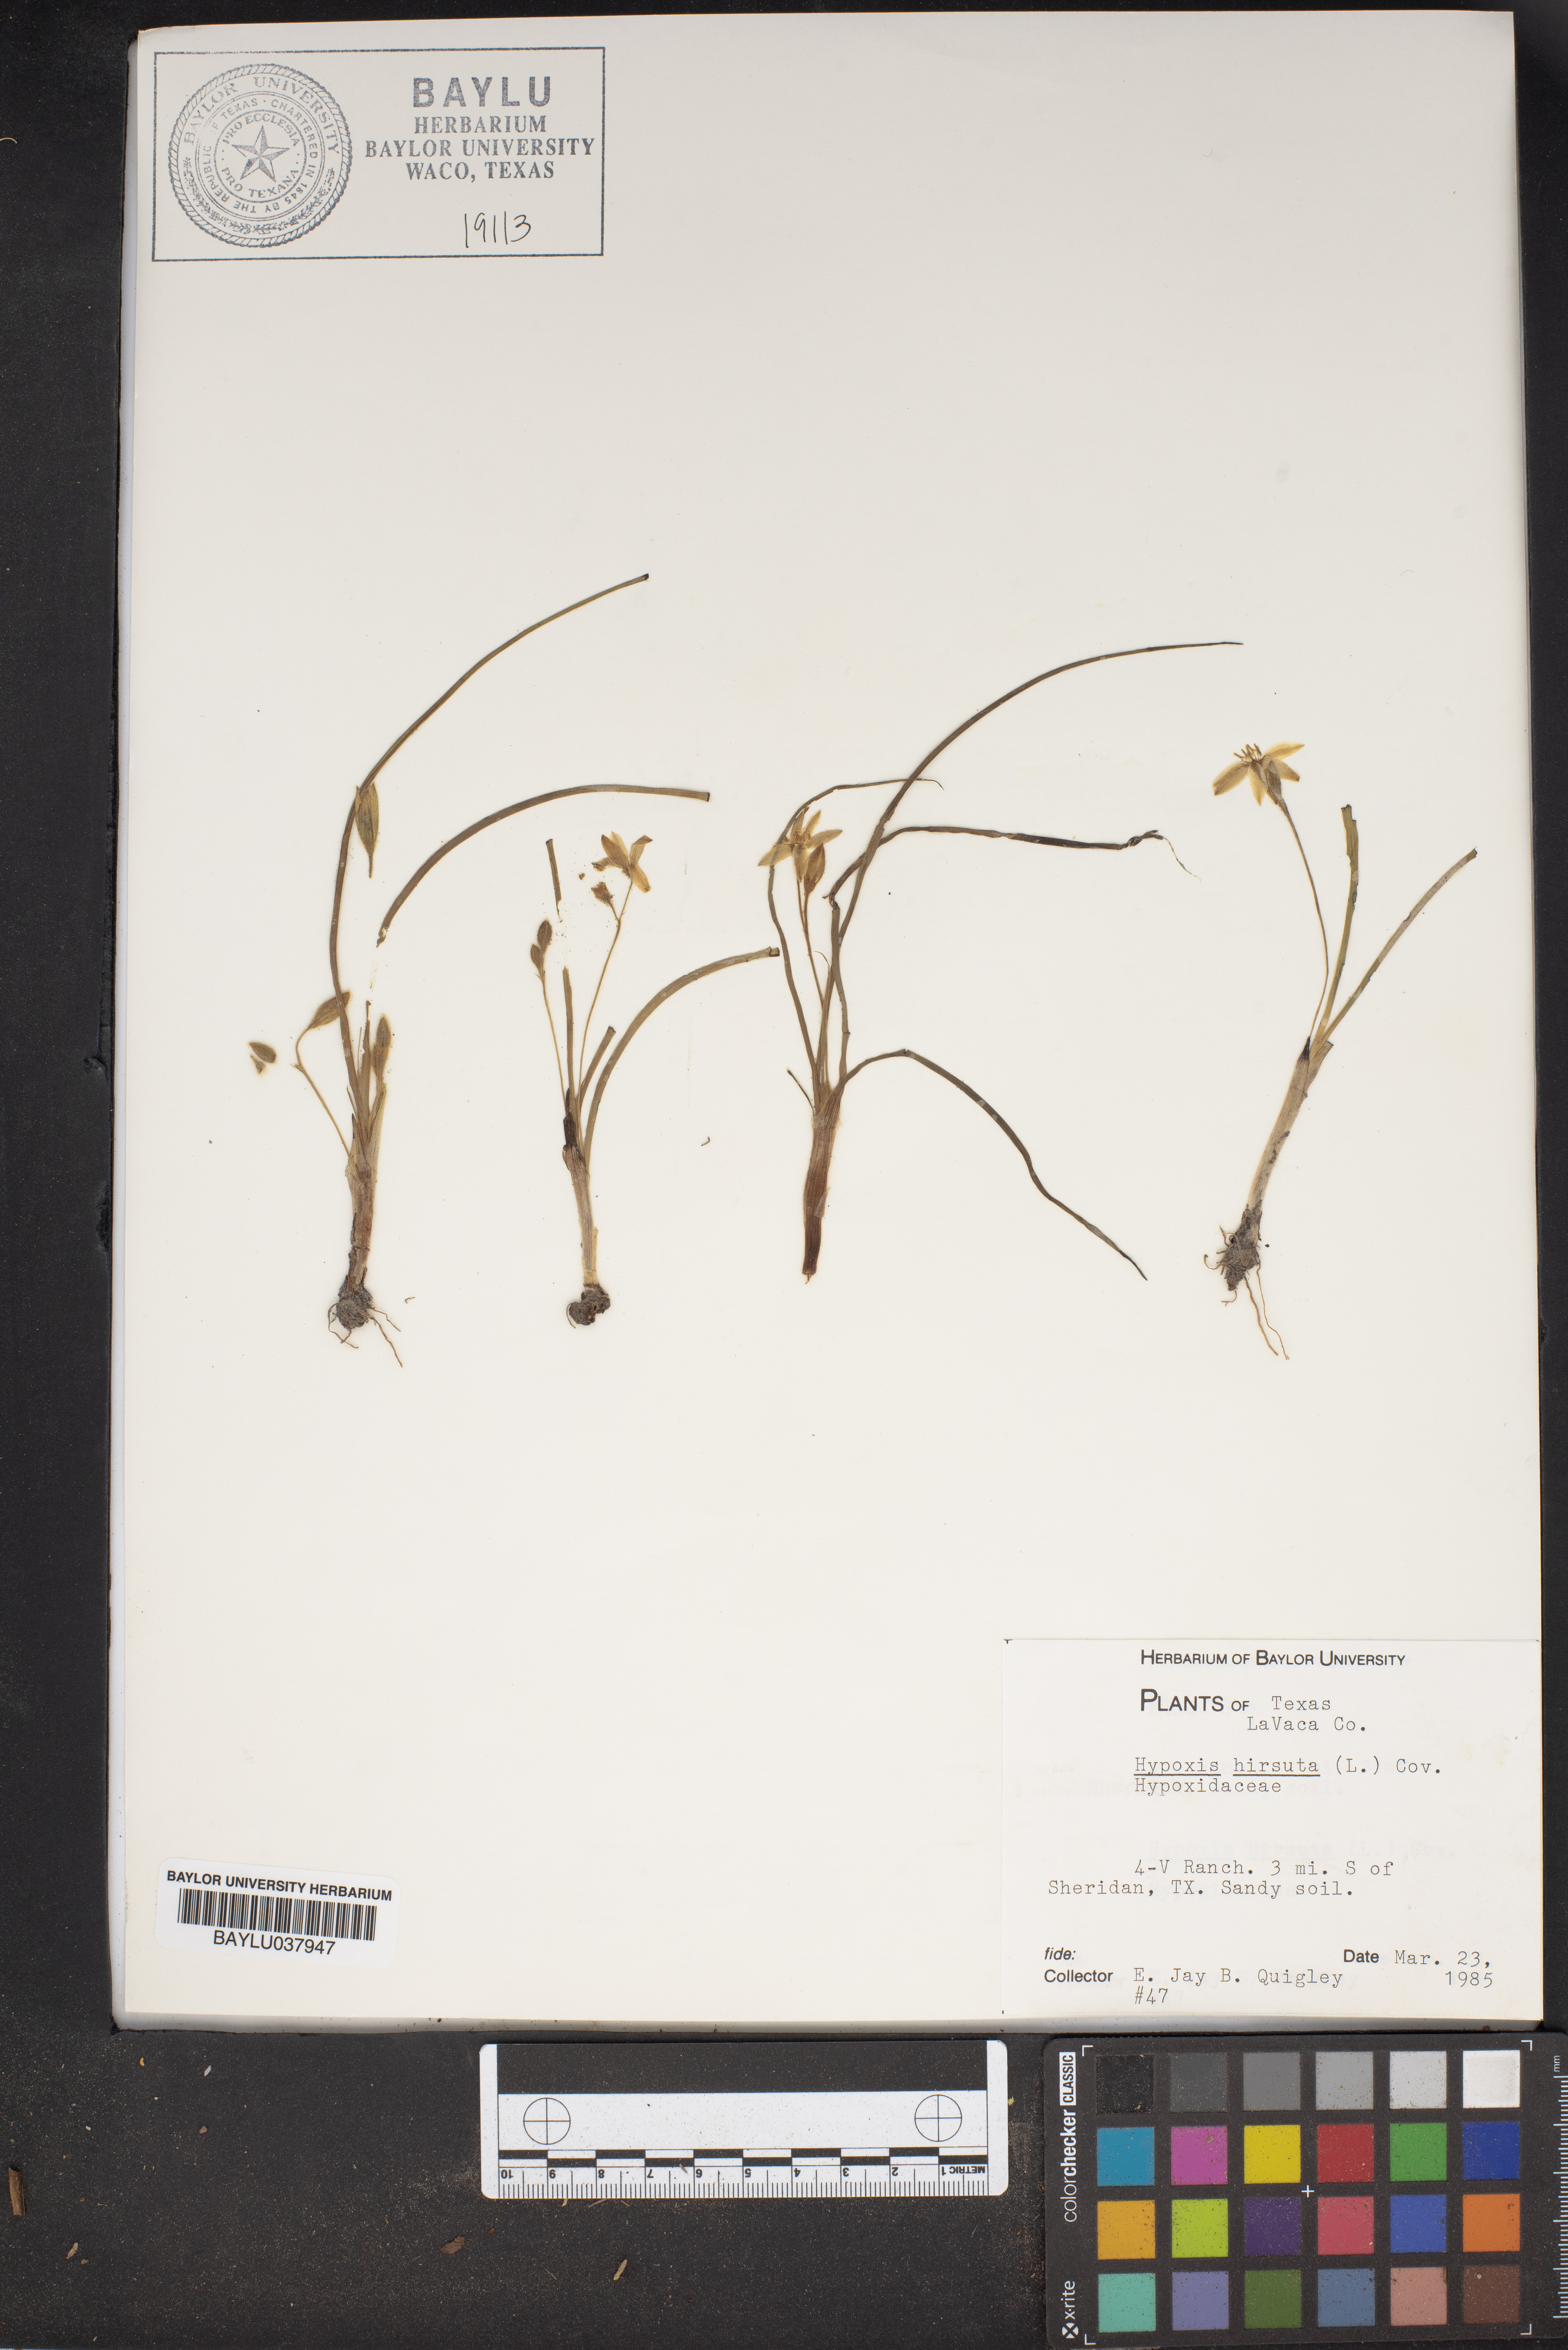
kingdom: Plantae
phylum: Tracheophyta
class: Liliopsida
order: Asparagales
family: Hypoxidaceae
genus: Hypoxis
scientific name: Hypoxis hirsuta
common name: Common goldstar
